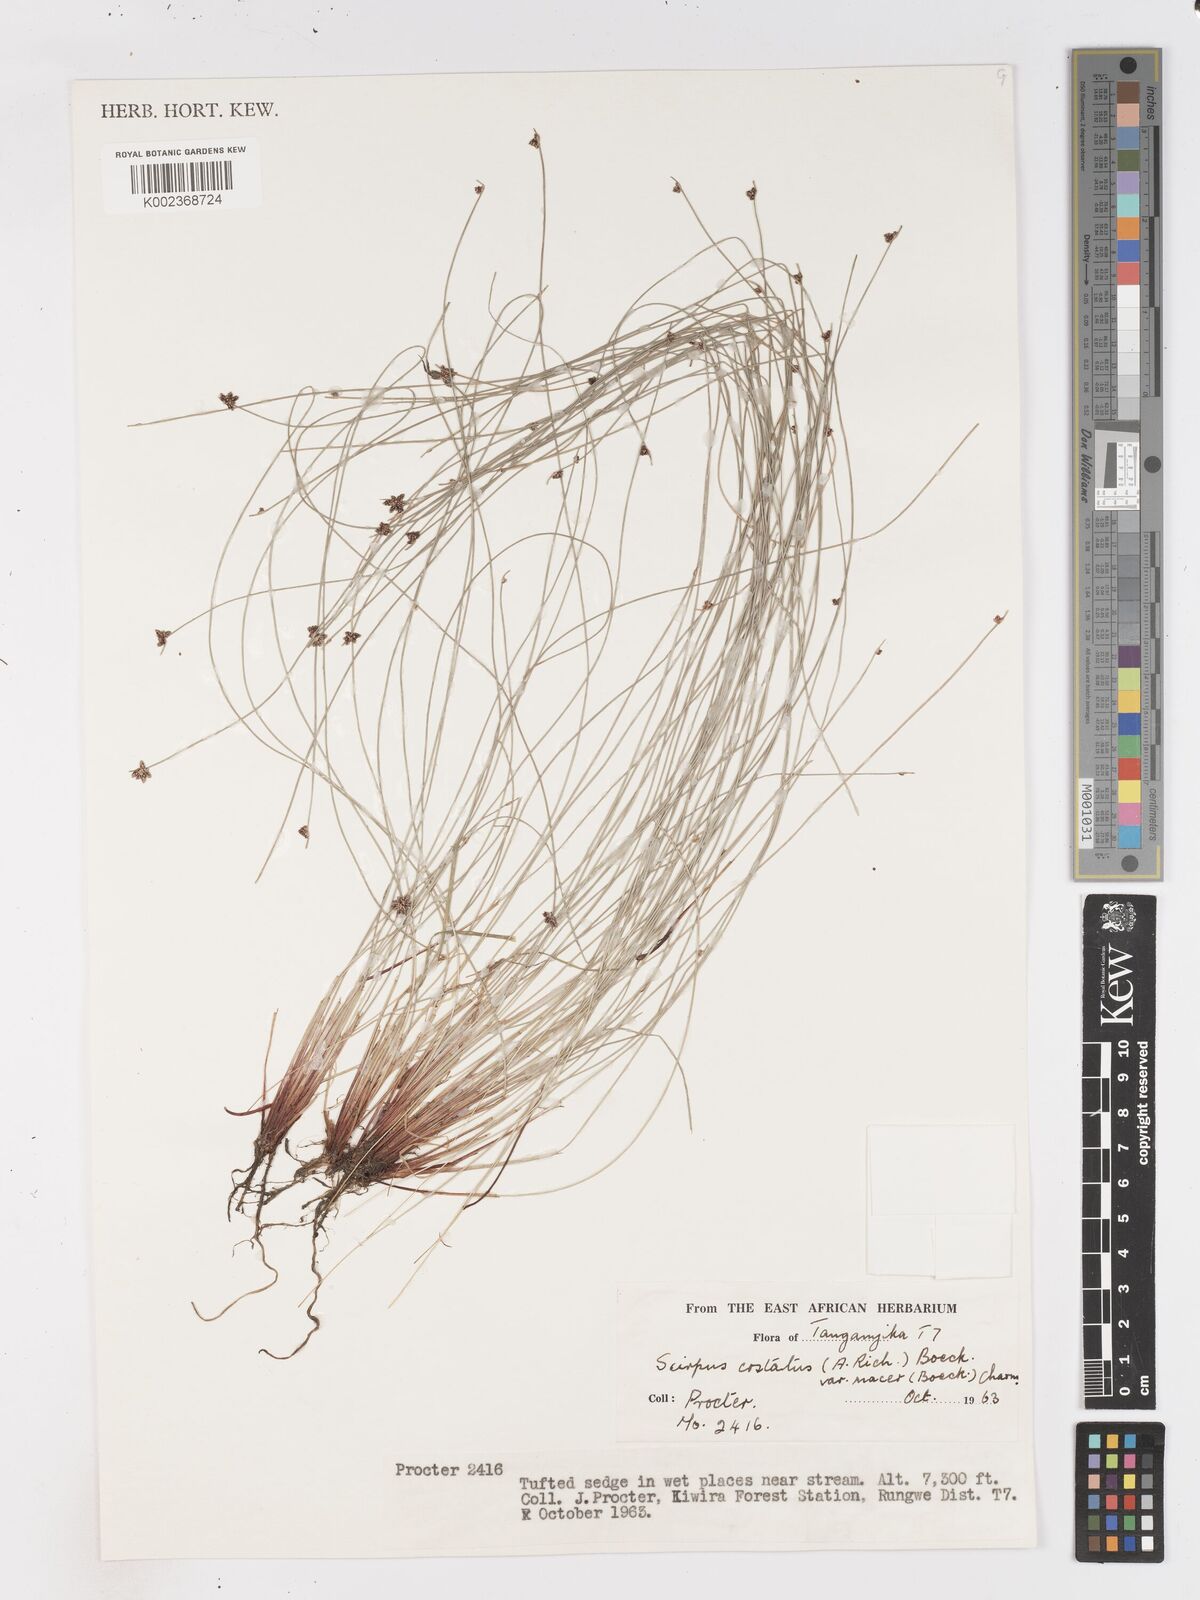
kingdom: Plantae
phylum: Tracheophyta
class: Liliopsida
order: Poales
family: Cyperaceae
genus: Isolepis
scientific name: Isolepis costata
